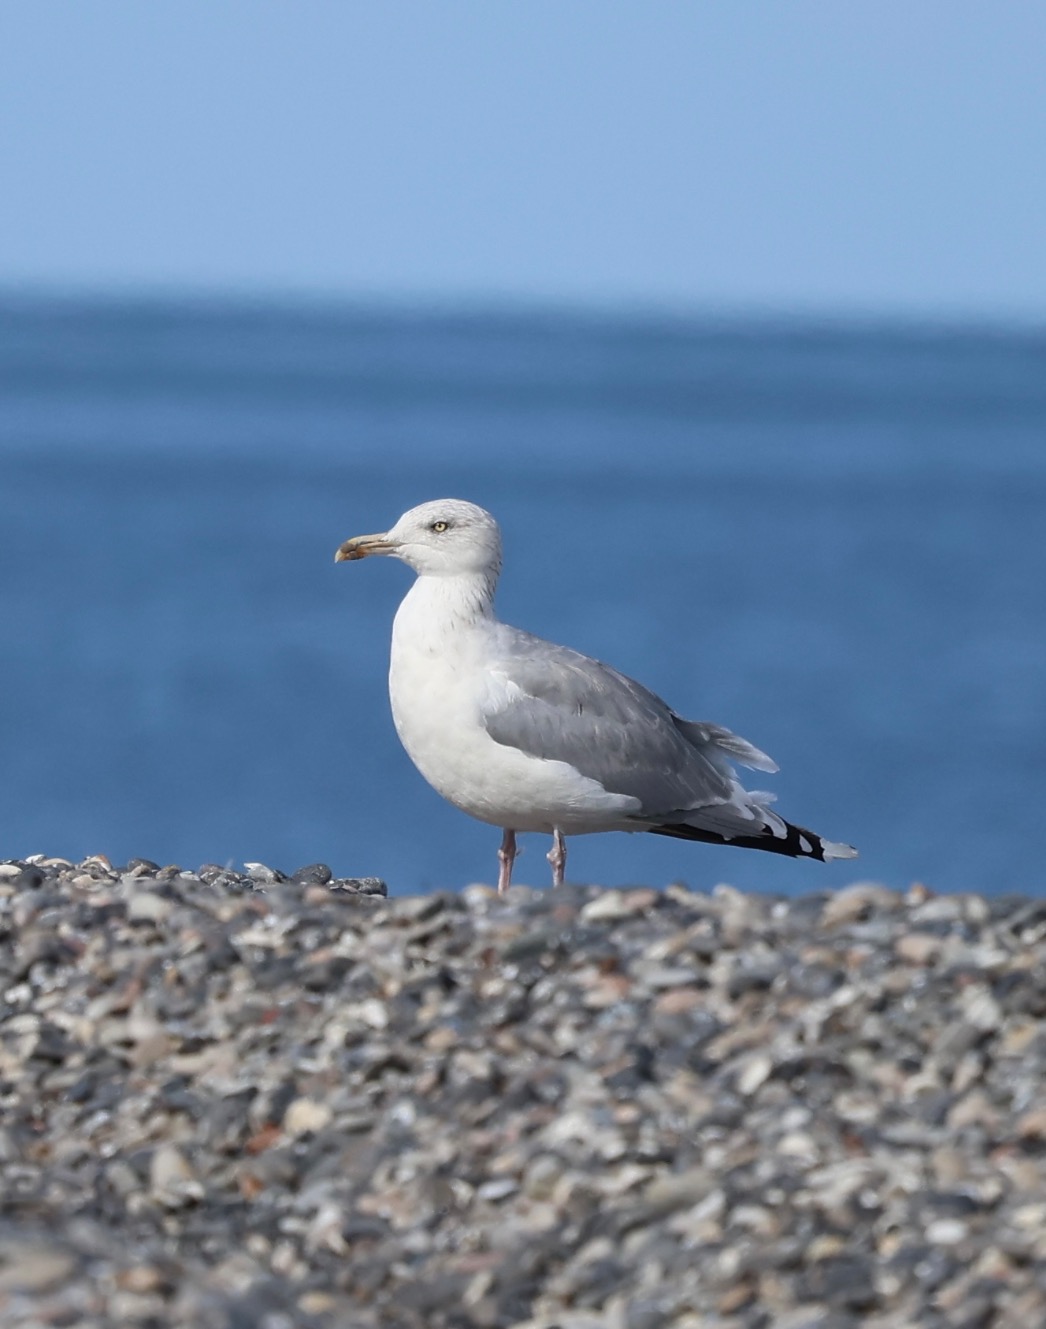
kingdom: Animalia
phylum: Chordata
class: Aves
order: Charadriiformes
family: Laridae
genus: Larus
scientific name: Larus argentatus
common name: Sølvmåge
